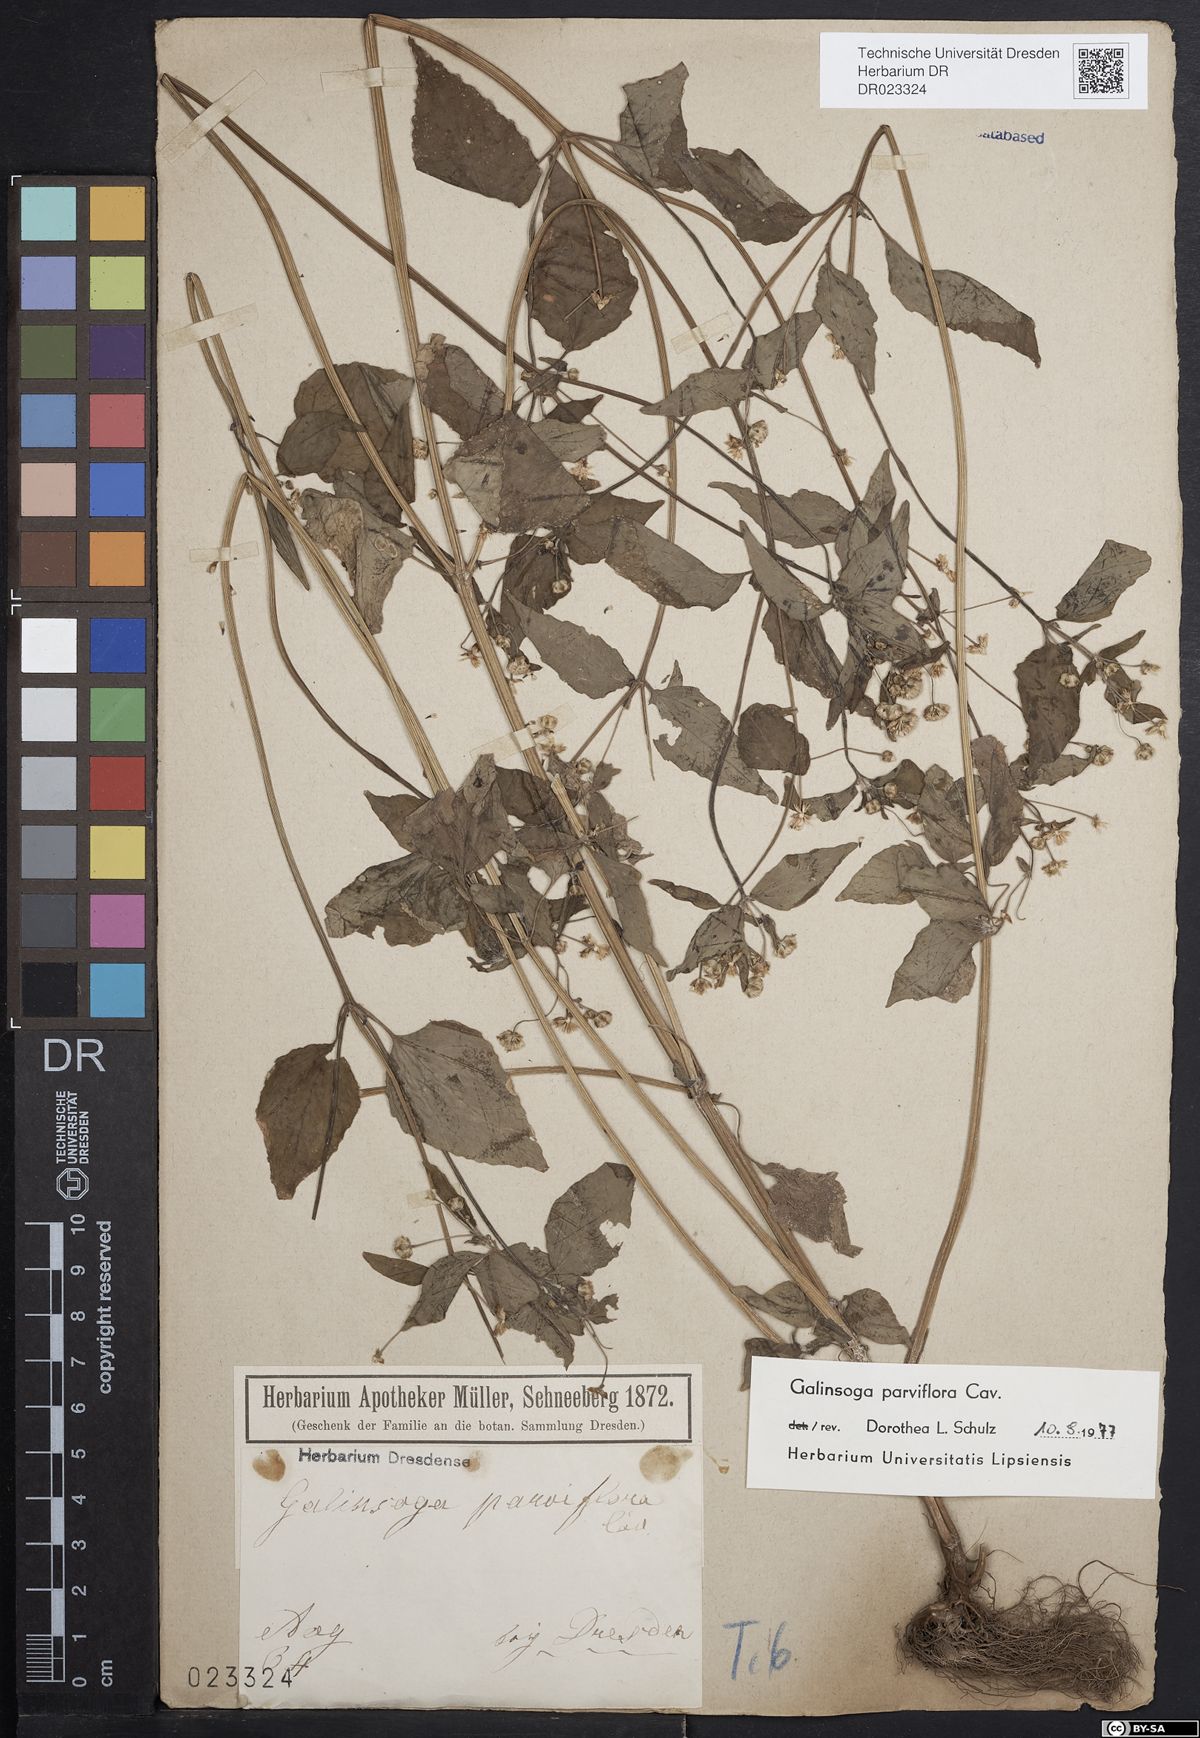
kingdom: Plantae
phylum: Tracheophyta
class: Magnoliopsida
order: Asterales
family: Asteraceae
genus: Galinsoga
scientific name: Galinsoga parviflora
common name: Gallant soldier
